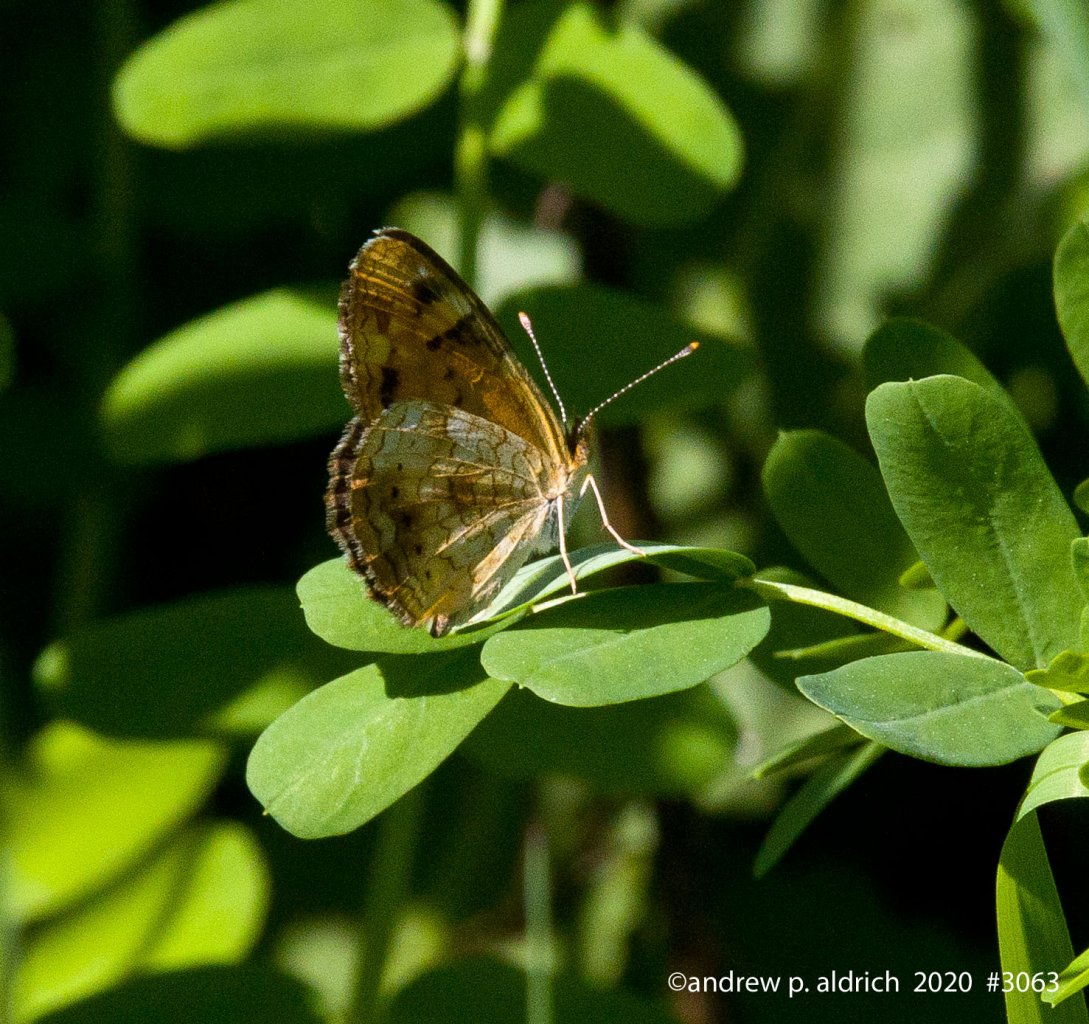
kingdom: Animalia
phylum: Arthropoda
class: Insecta
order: Lepidoptera
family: Nymphalidae
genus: Phyciodes
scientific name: Phyciodes tharos
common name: Pearl Crescent
